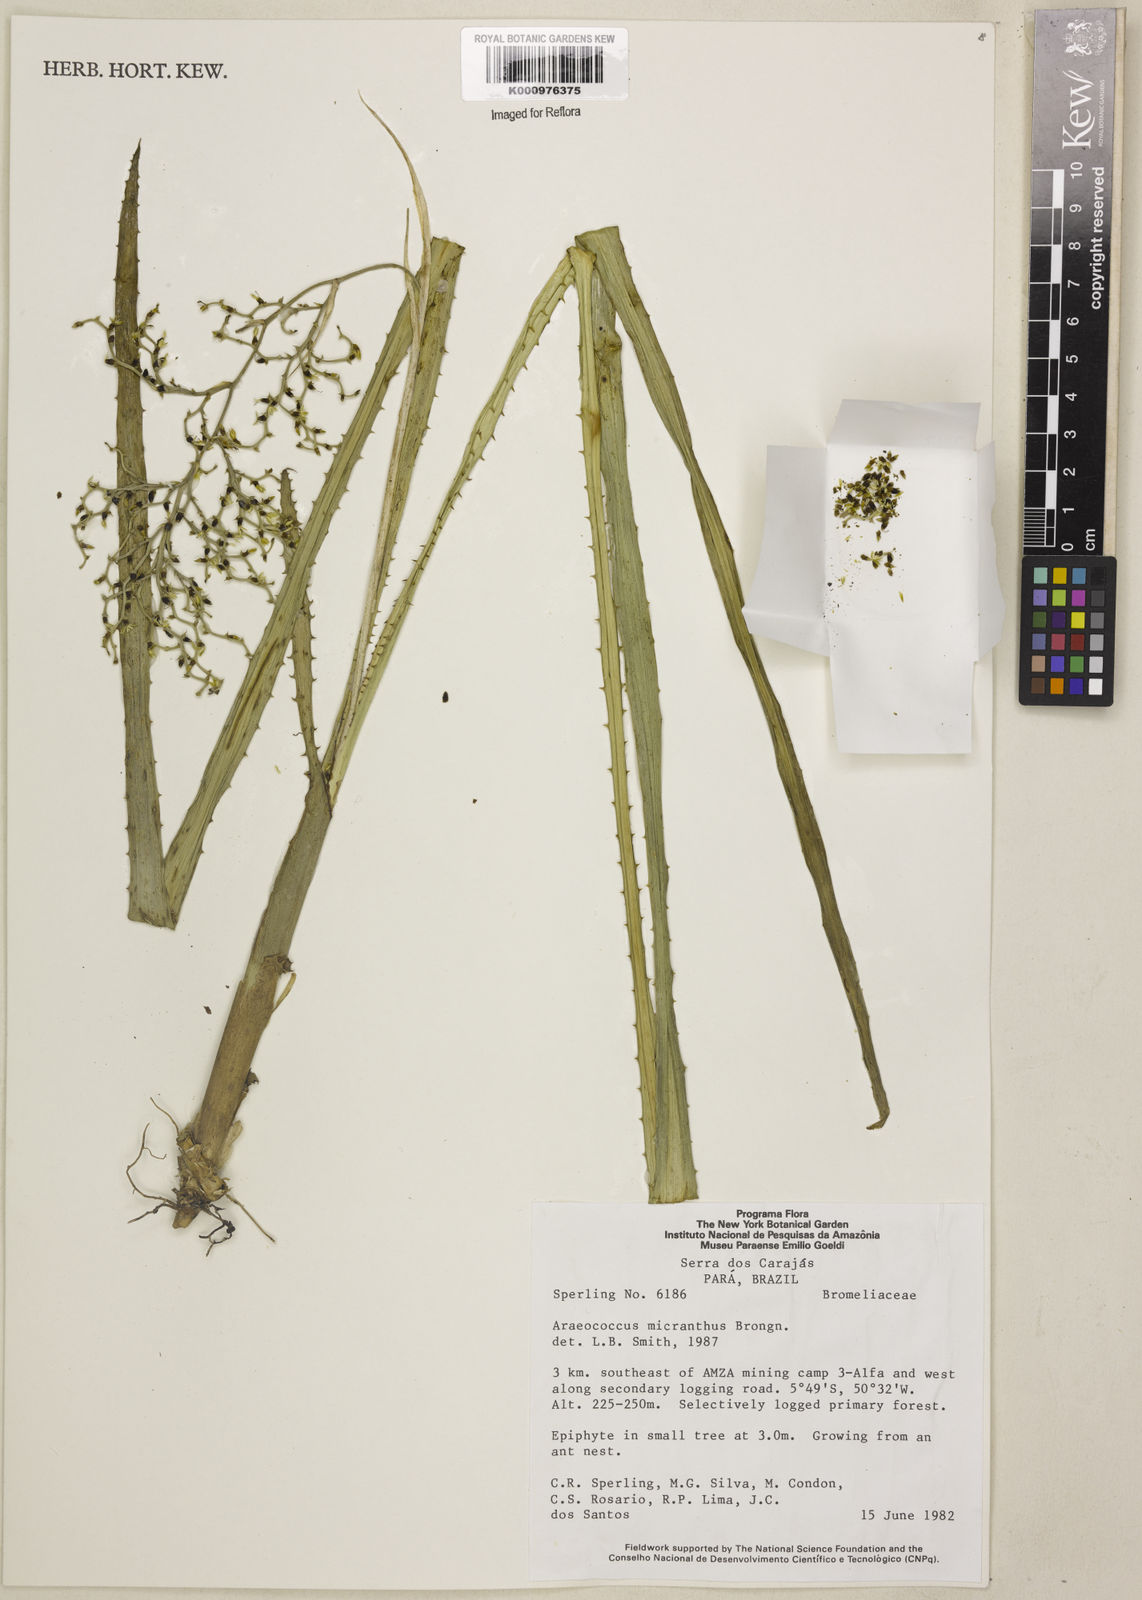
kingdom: Plantae
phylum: Tracheophyta
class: Liliopsida
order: Poales
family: Bromeliaceae
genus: Araeococcus
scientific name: Araeococcus micranthus
